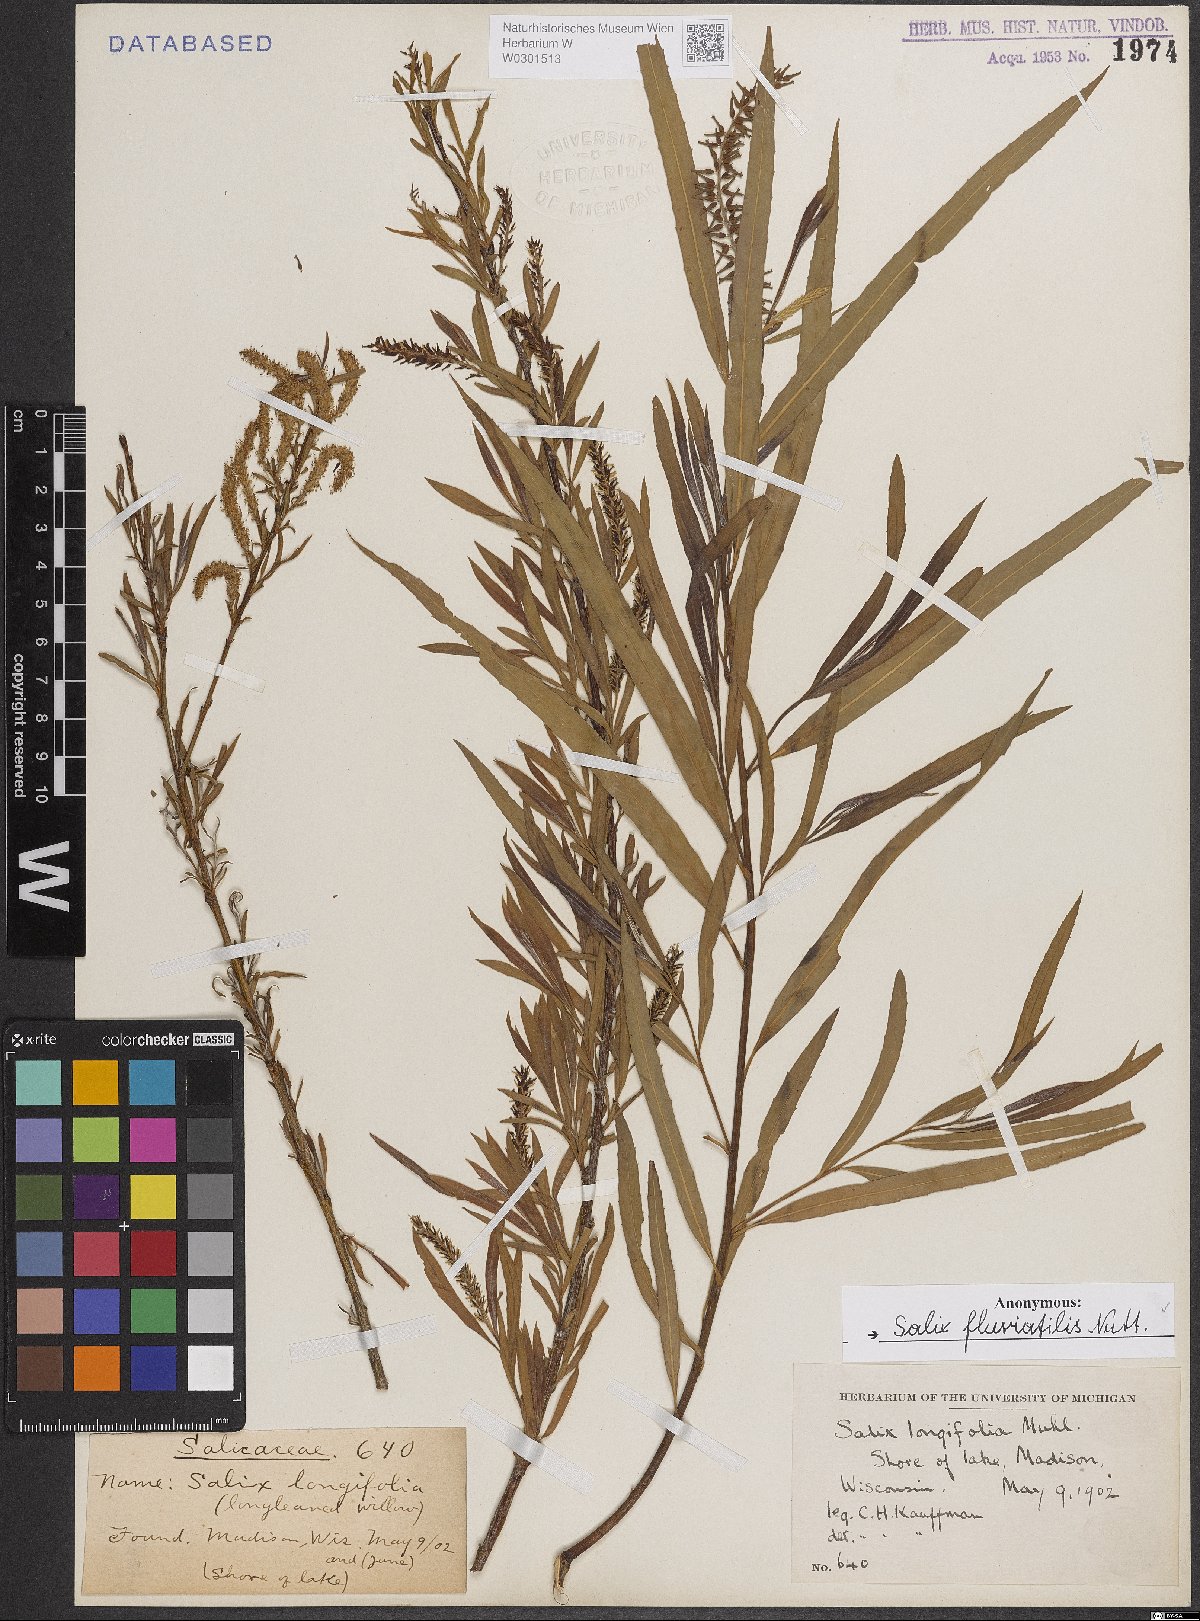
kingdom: Plantae
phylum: Tracheophyta
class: Magnoliopsida
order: Malpighiales
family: Salicaceae
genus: Salix
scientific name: Salix melanopsis
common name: Dusky willow
